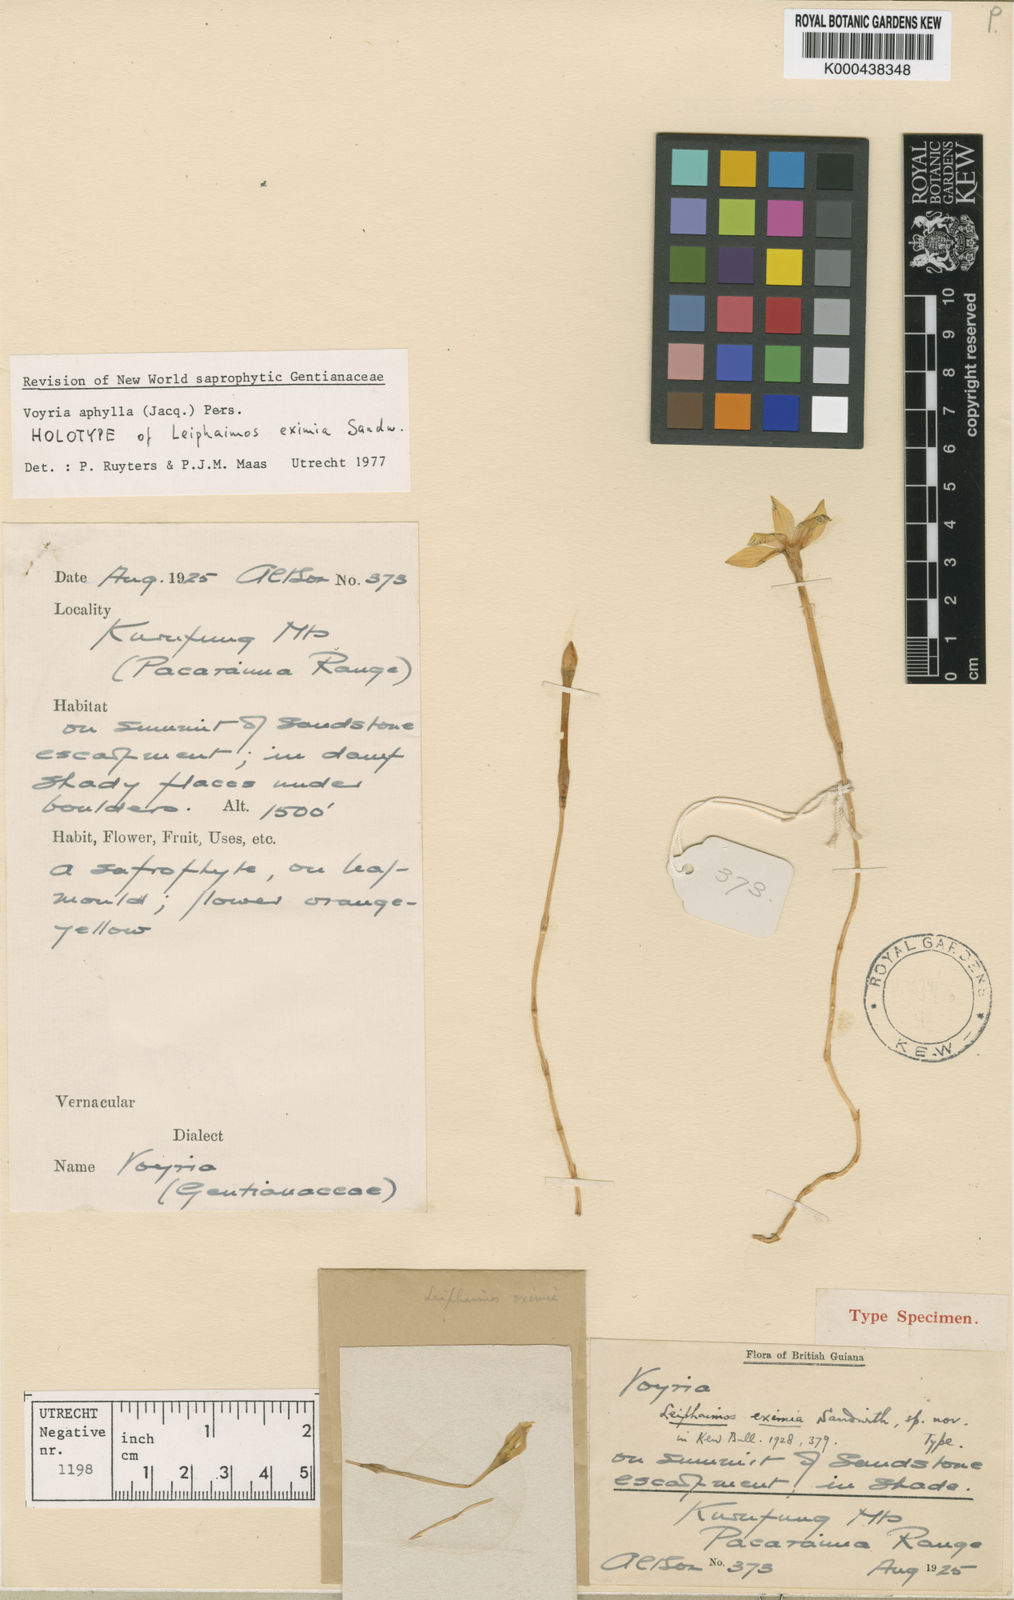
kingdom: Plantae
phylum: Tracheophyta
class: Magnoliopsida
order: Gentianales
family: Gentianaceae
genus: Voyria
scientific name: Voyria aphylla
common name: Leafless ghost plant
